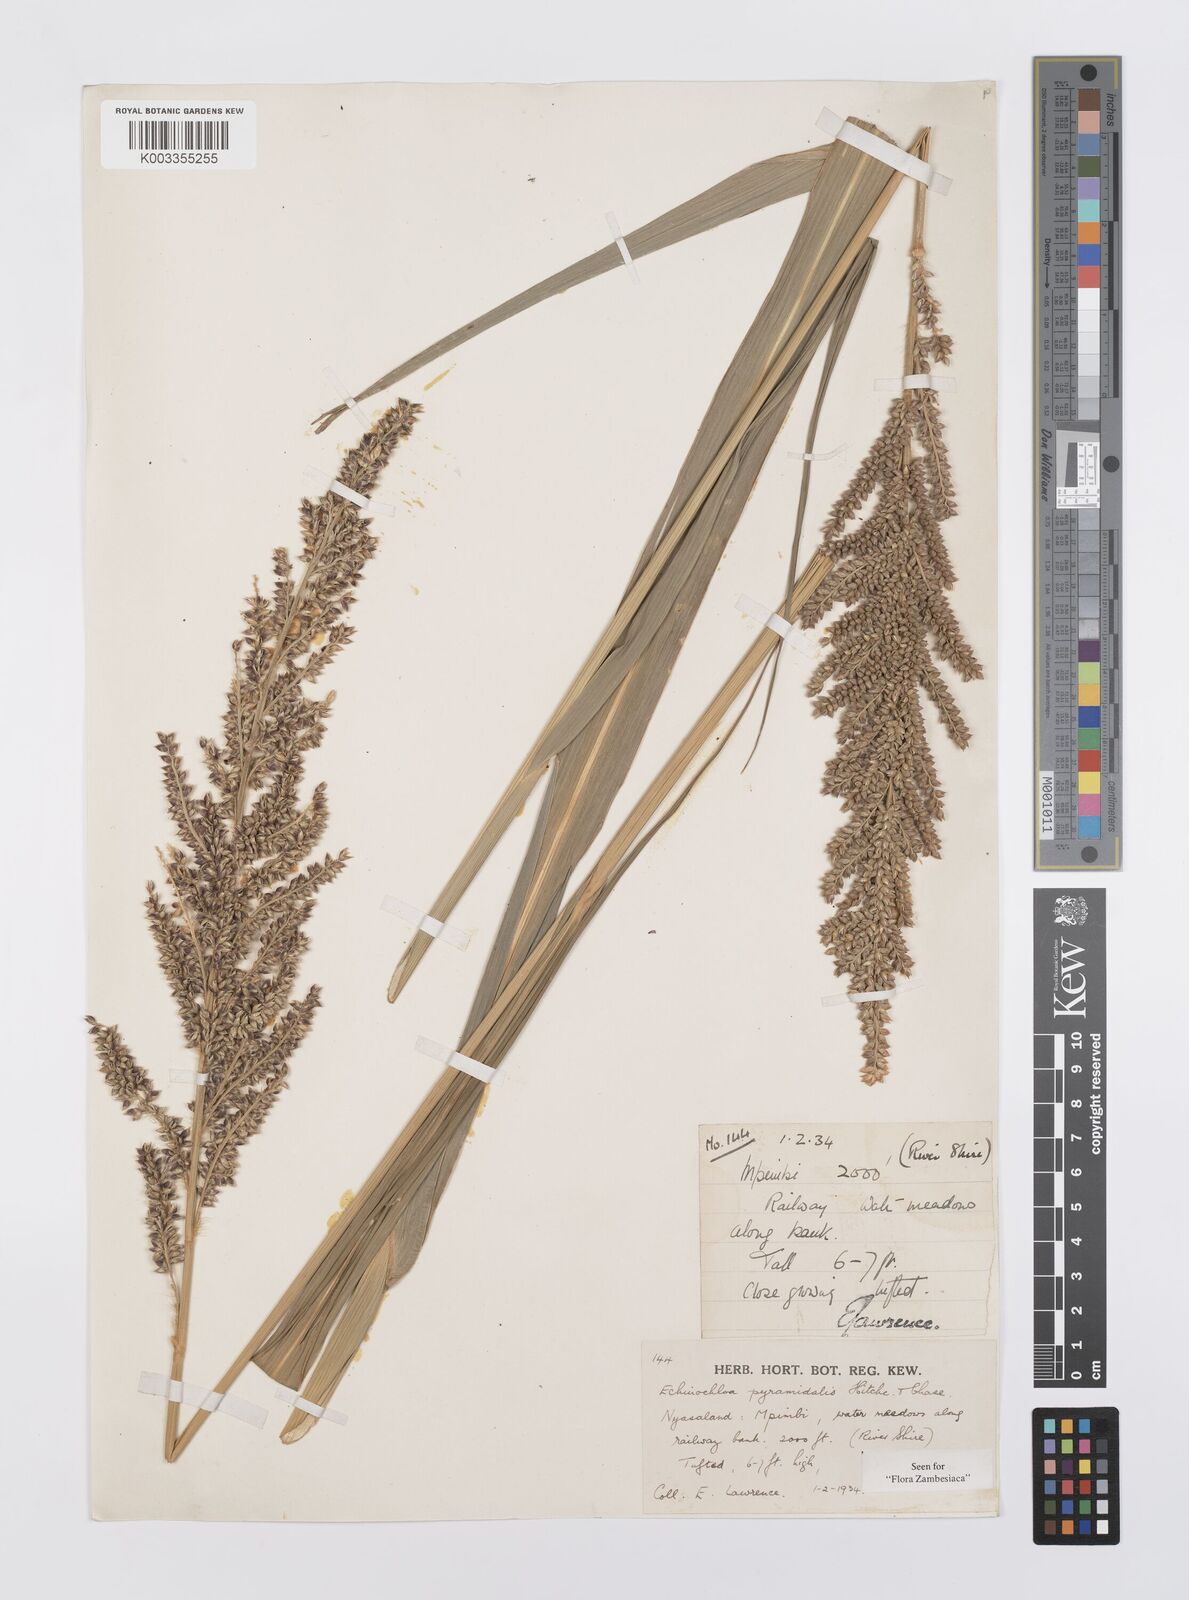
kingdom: Plantae
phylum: Tracheophyta
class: Liliopsida
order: Poales
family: Poaceae
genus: Echinochloa
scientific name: Echinochloa pyramidalis
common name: Antelope grass
